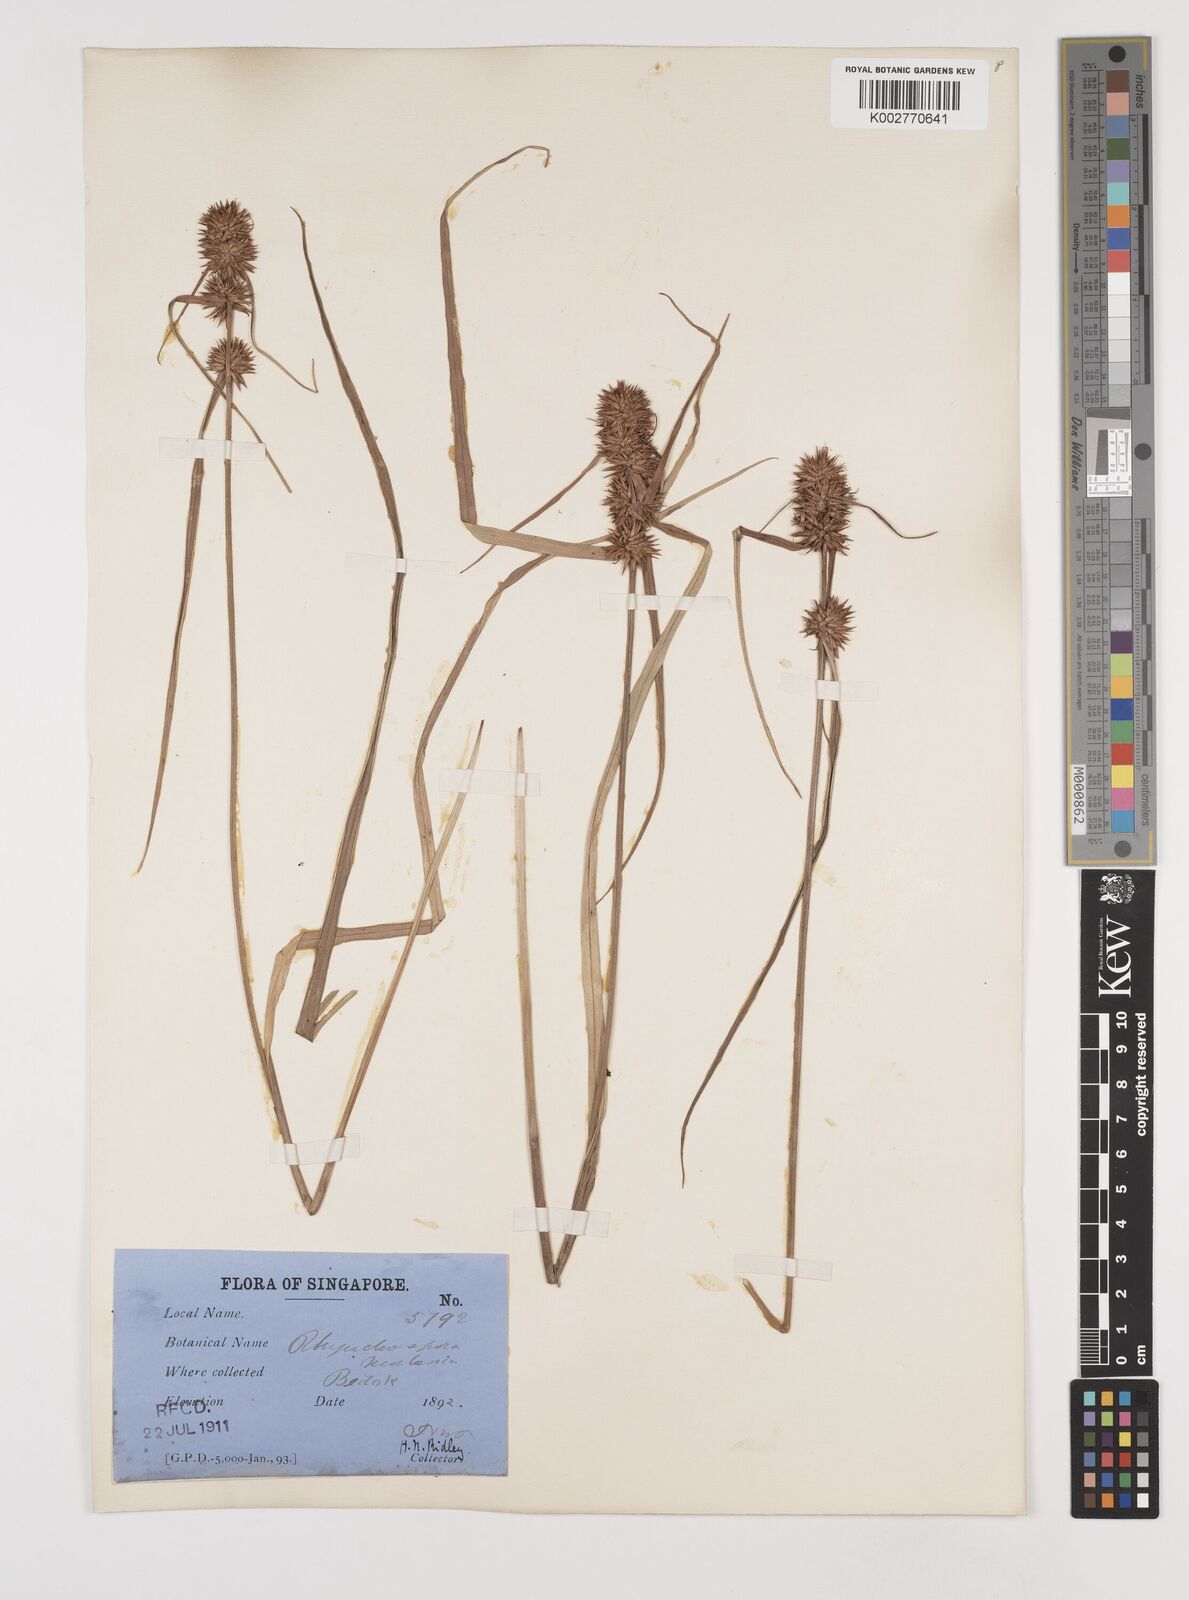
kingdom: Plantae
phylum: Tracheophyta
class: Liliopsida
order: Poales
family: Cyperaceae
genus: Rhynchospora
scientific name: Rhynchospora malasica
